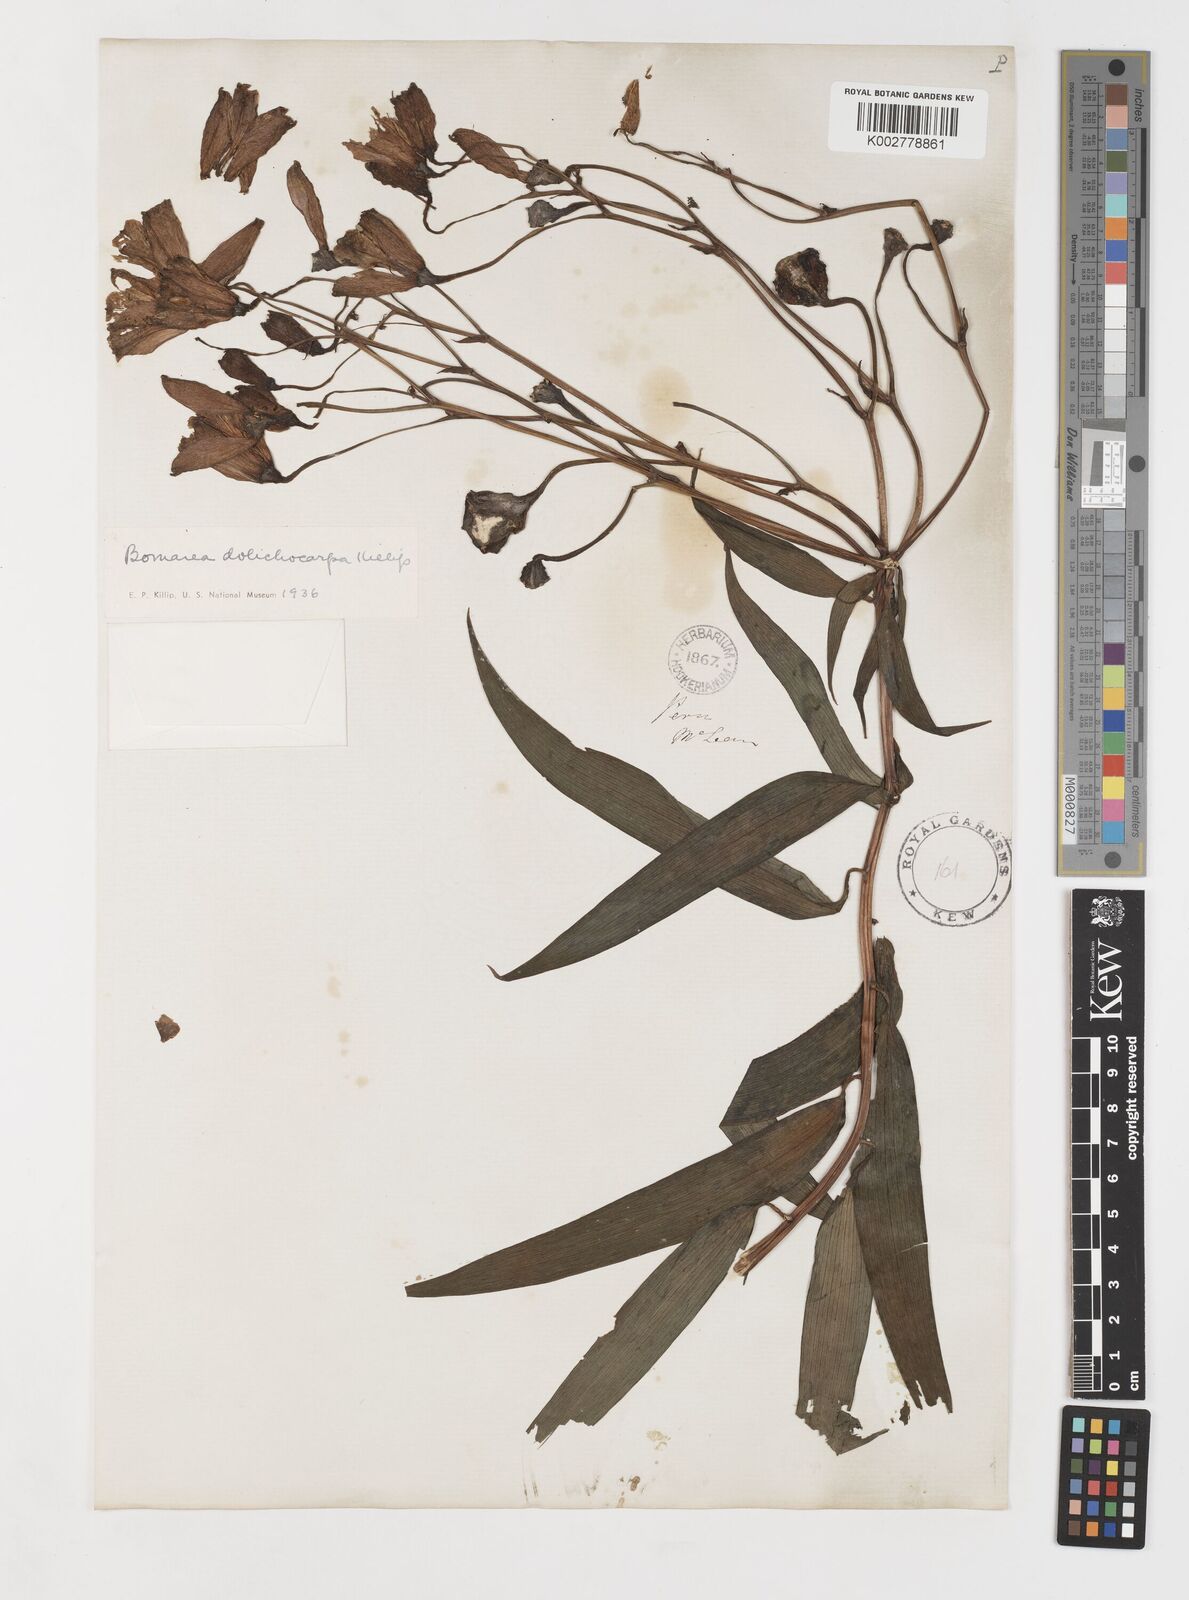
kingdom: Plantae
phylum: Tracheophyta
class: Liliopsida
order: Liliales
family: Alstroemeriaceae
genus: Bomarea
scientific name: Bomarea dolichocarpa
